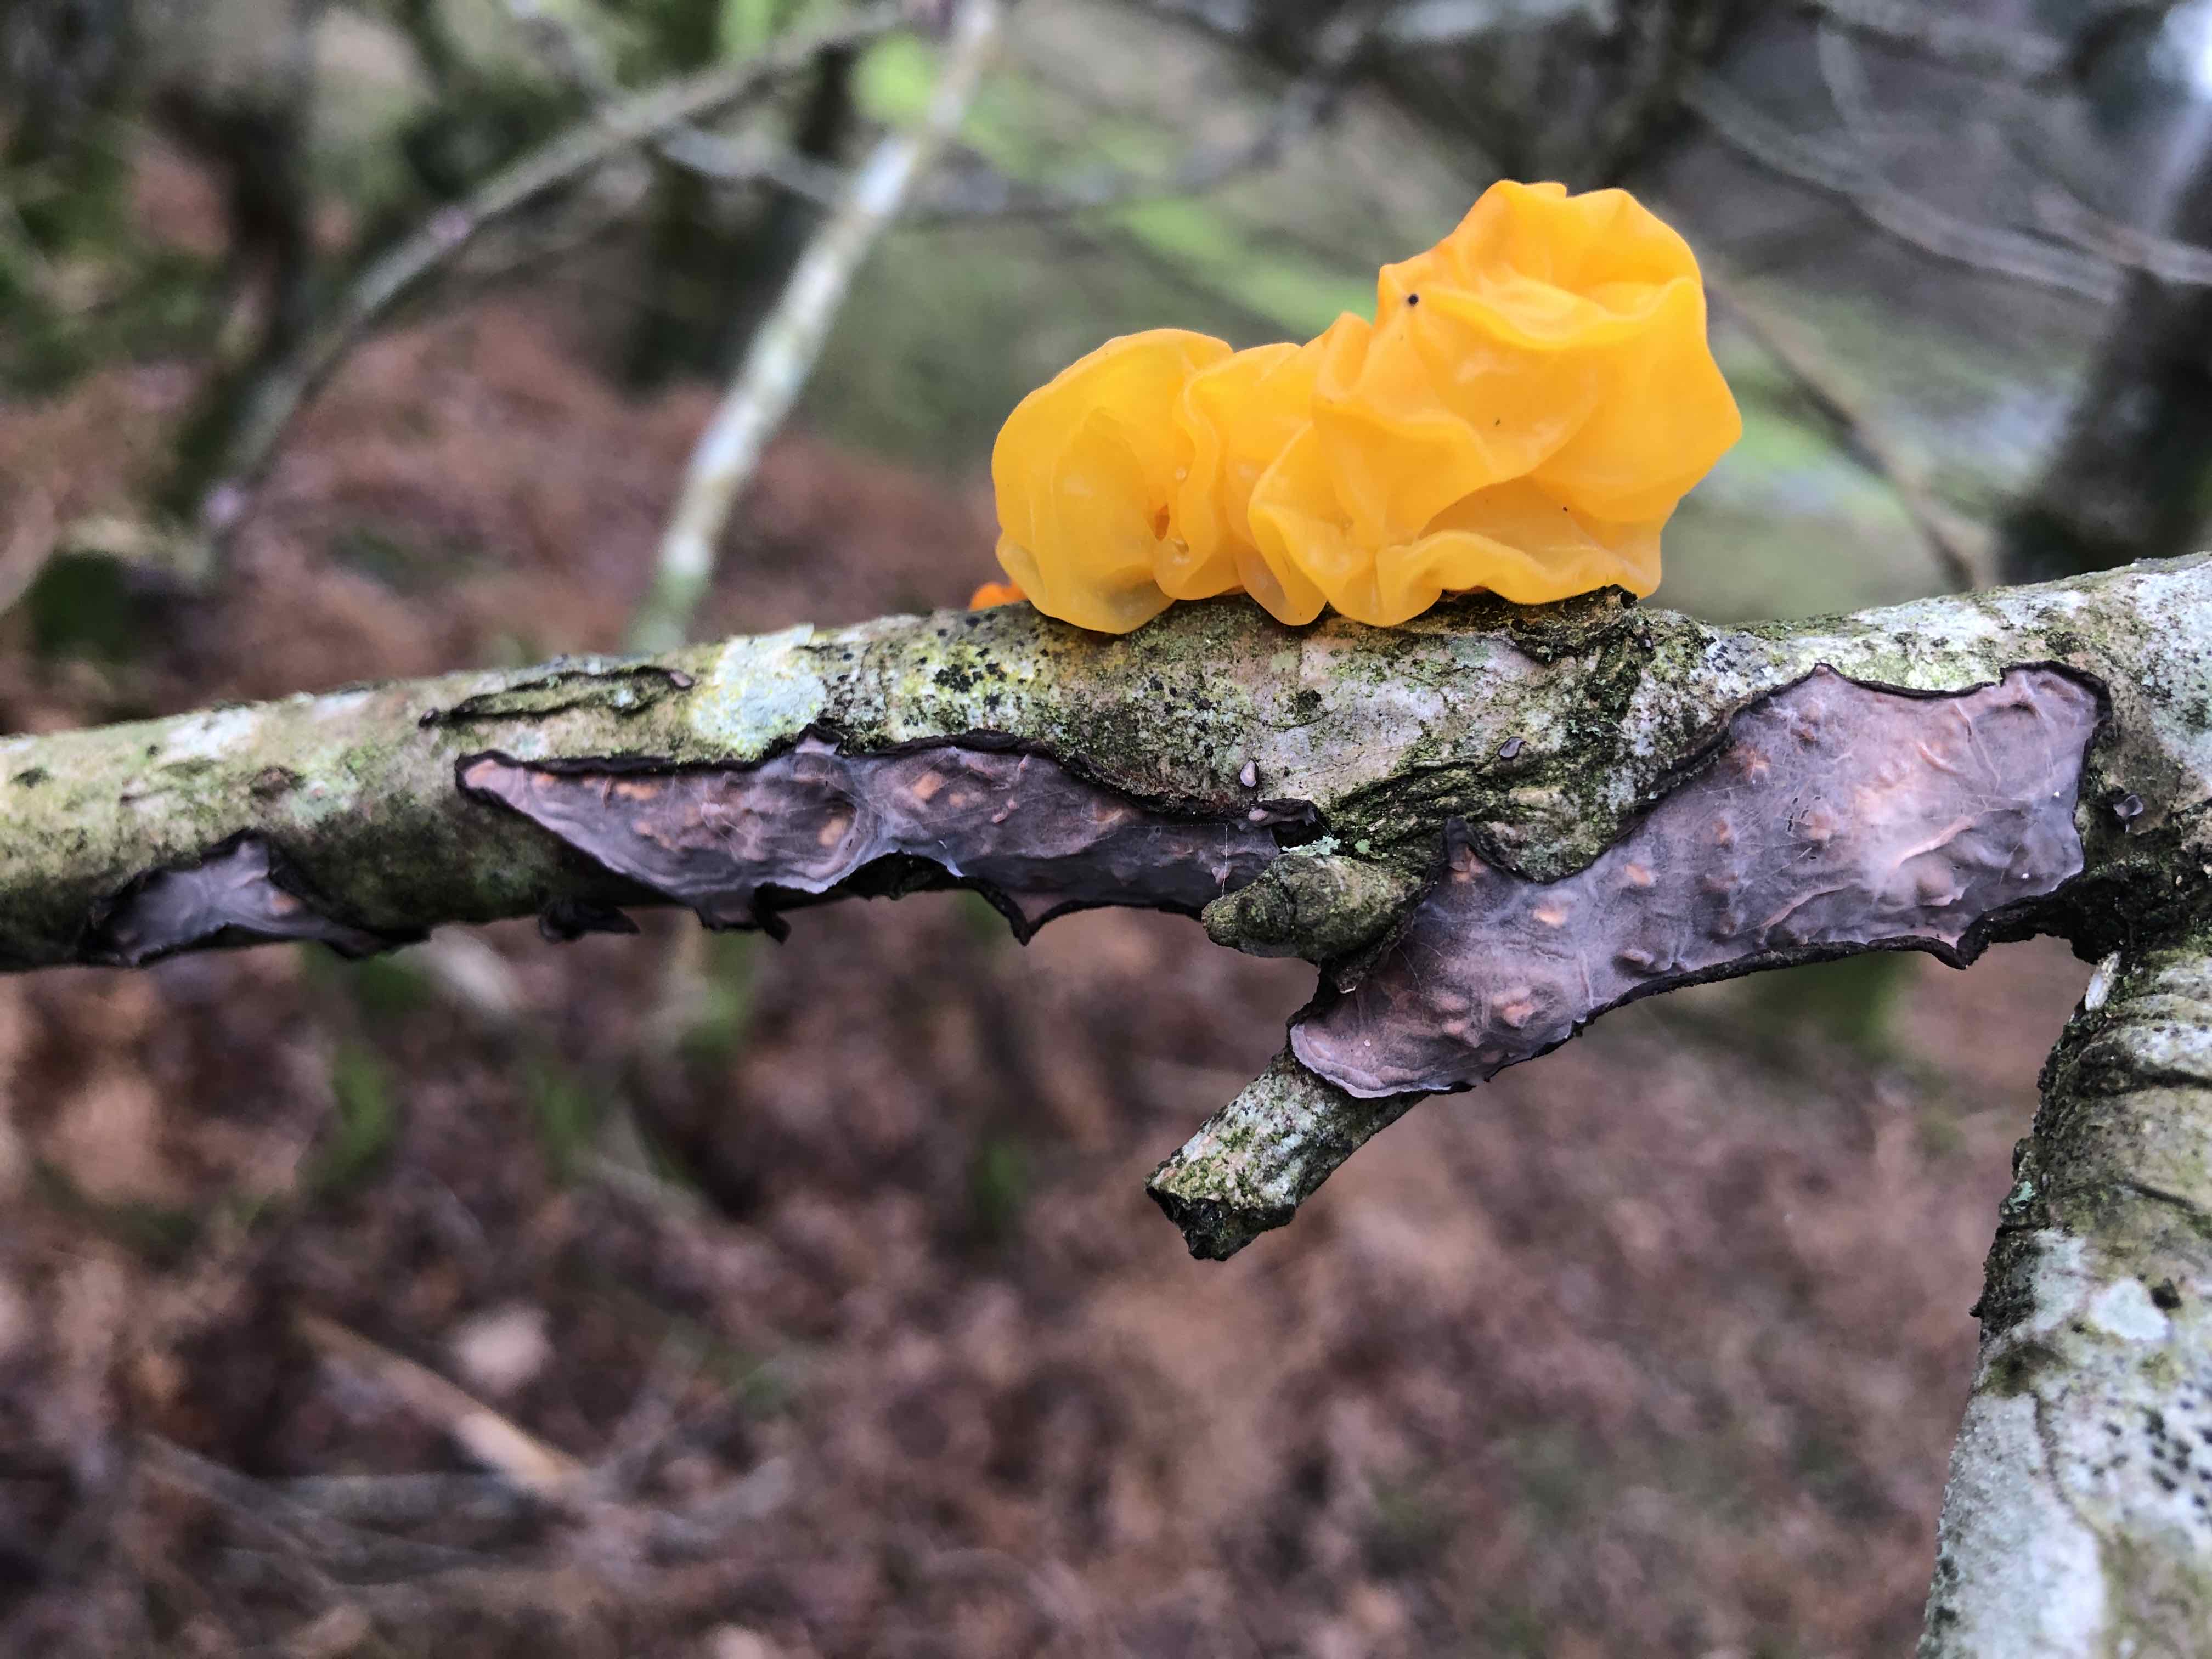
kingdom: Fungi
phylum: Basidiomycota
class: Tremellomycetes
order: Tremellales
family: Tremellaceae
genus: Tremella
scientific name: Tremella mesenterica
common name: gul bævresvamp
